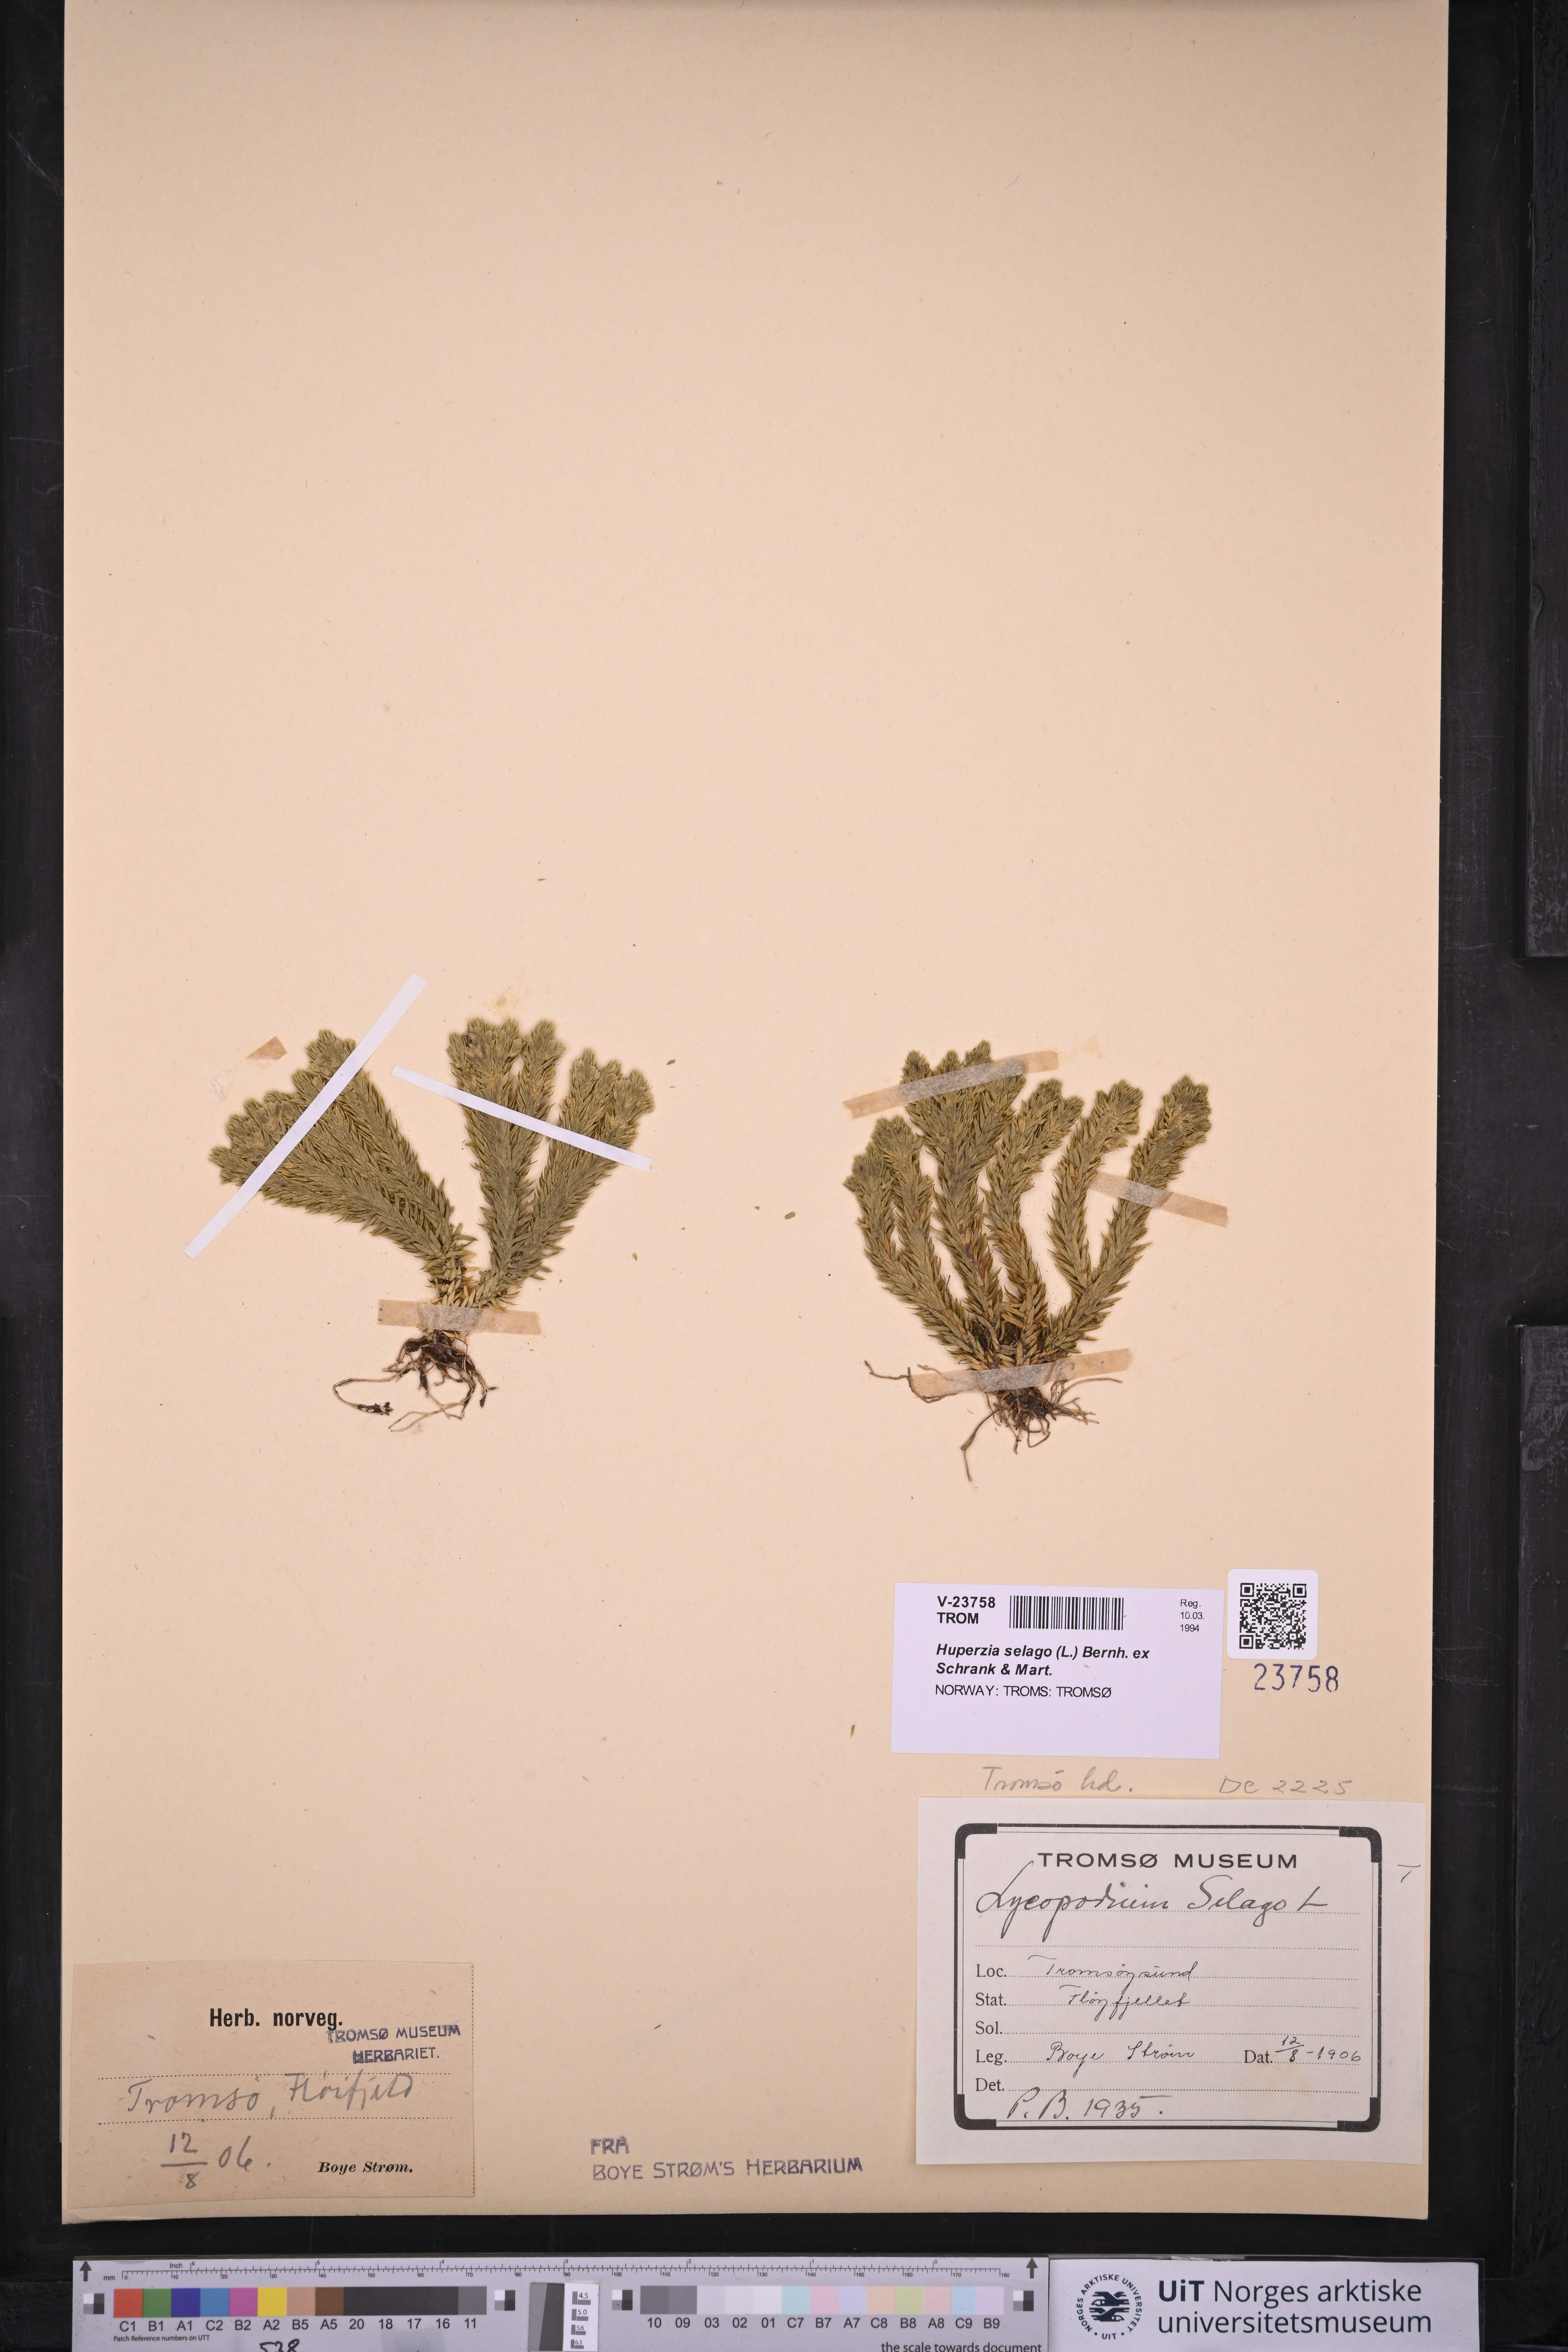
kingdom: Plantae
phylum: Tracheophyta
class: Lycopodiopsida
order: Lycopodiales
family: Lycopodiaceae
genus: Huperzia
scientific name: Huperzia selago
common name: Northern firmoss
